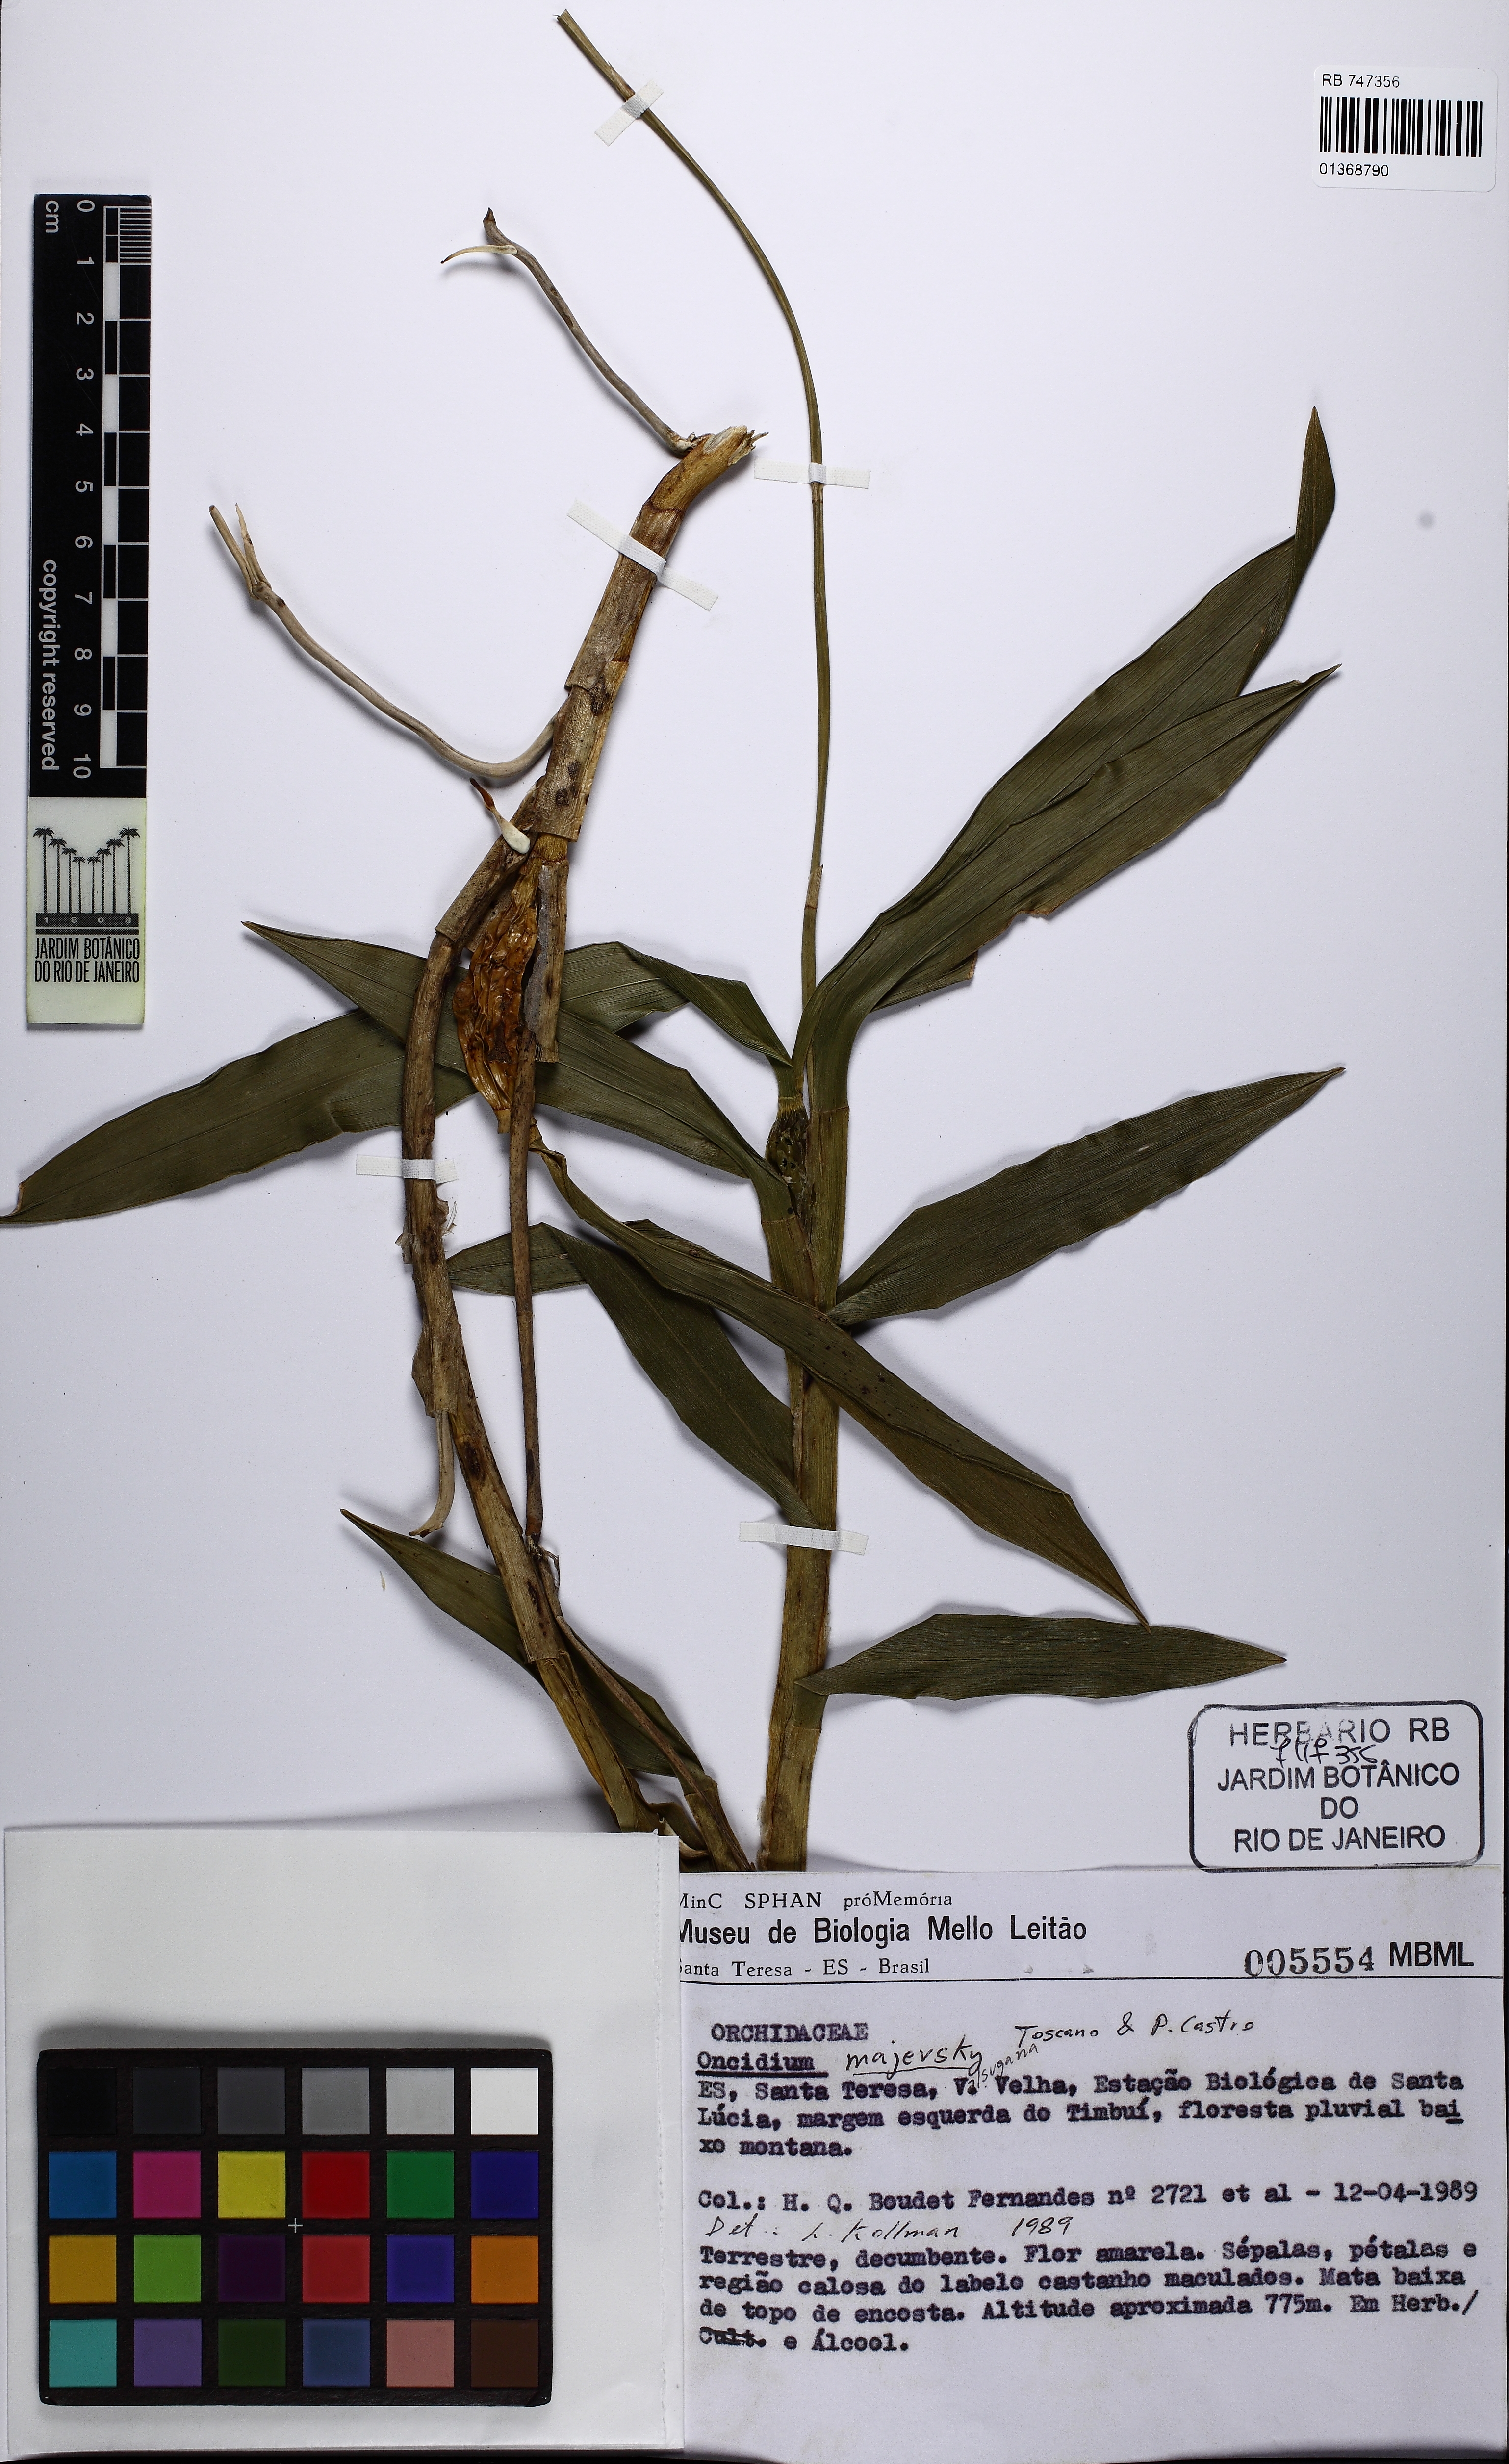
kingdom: Plantae
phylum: Tracheophyta
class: Liliopsida
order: Asparagales
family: Orchidaceae
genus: Gomesa
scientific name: Gomesa majevskyae
